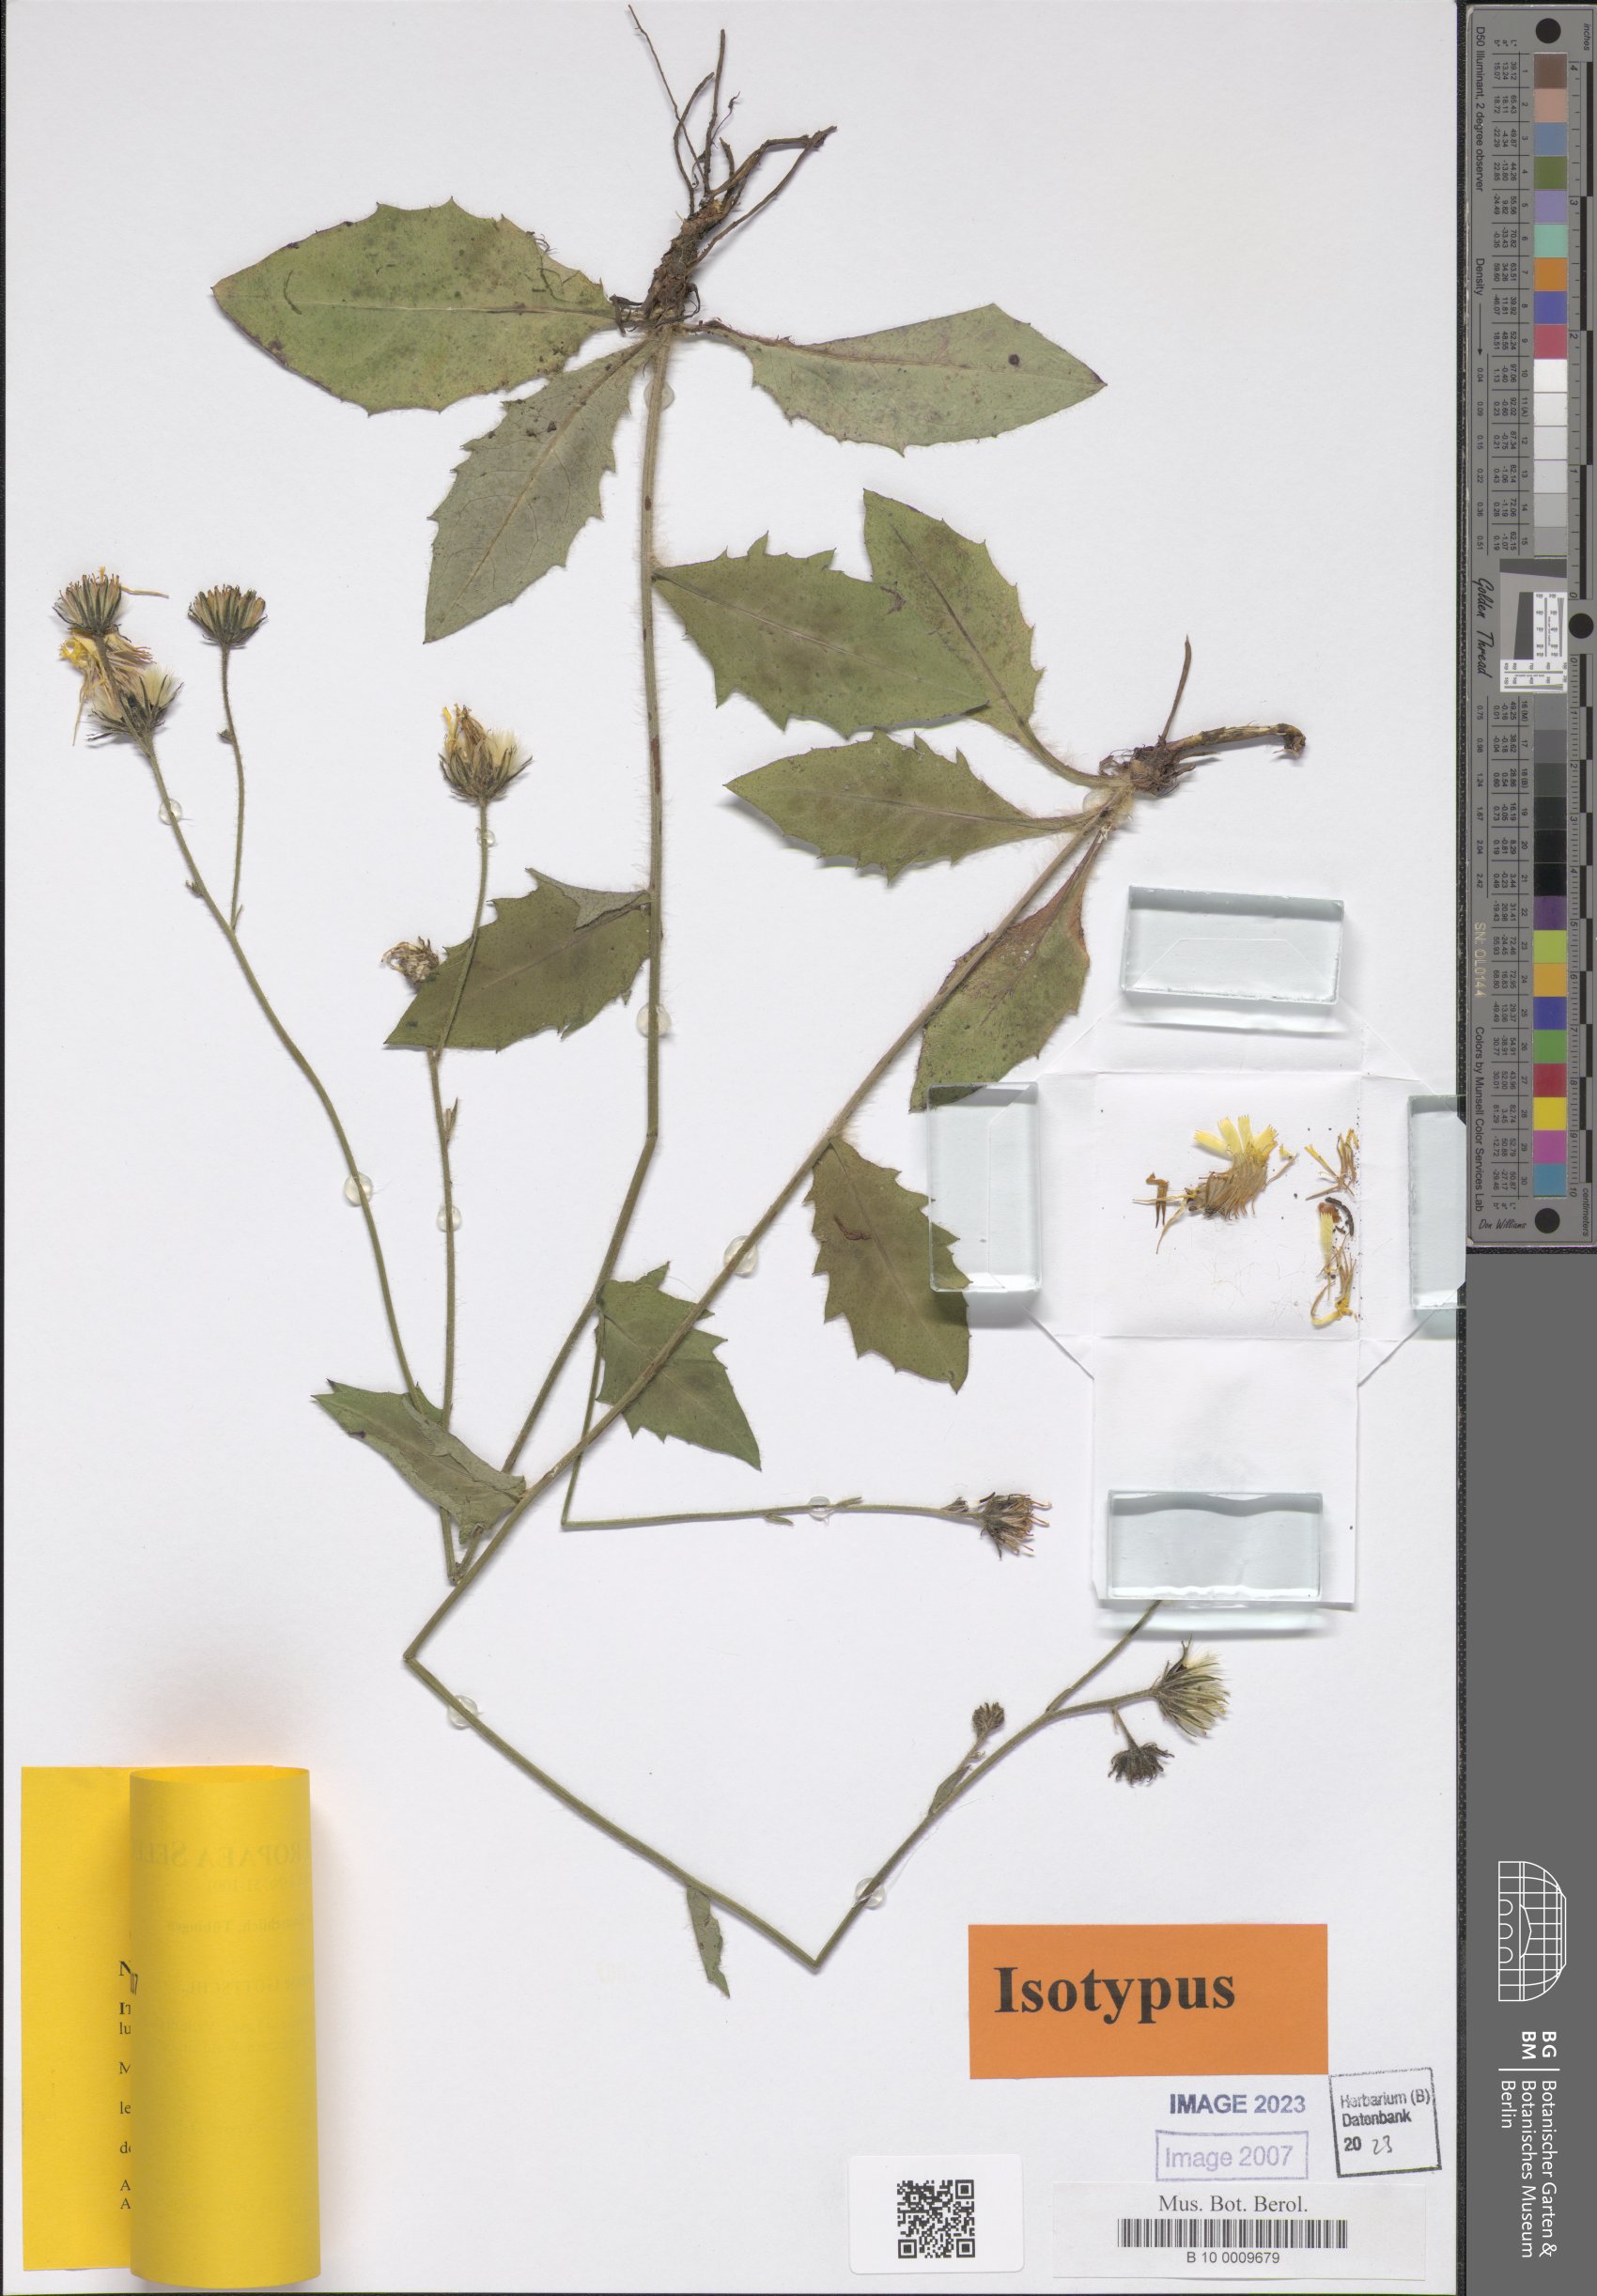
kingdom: Plantae
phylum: Tracheophyta
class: Magnoliopsida
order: Asterales
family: Asteraceae
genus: Hieracium
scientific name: Hieracium duronense
